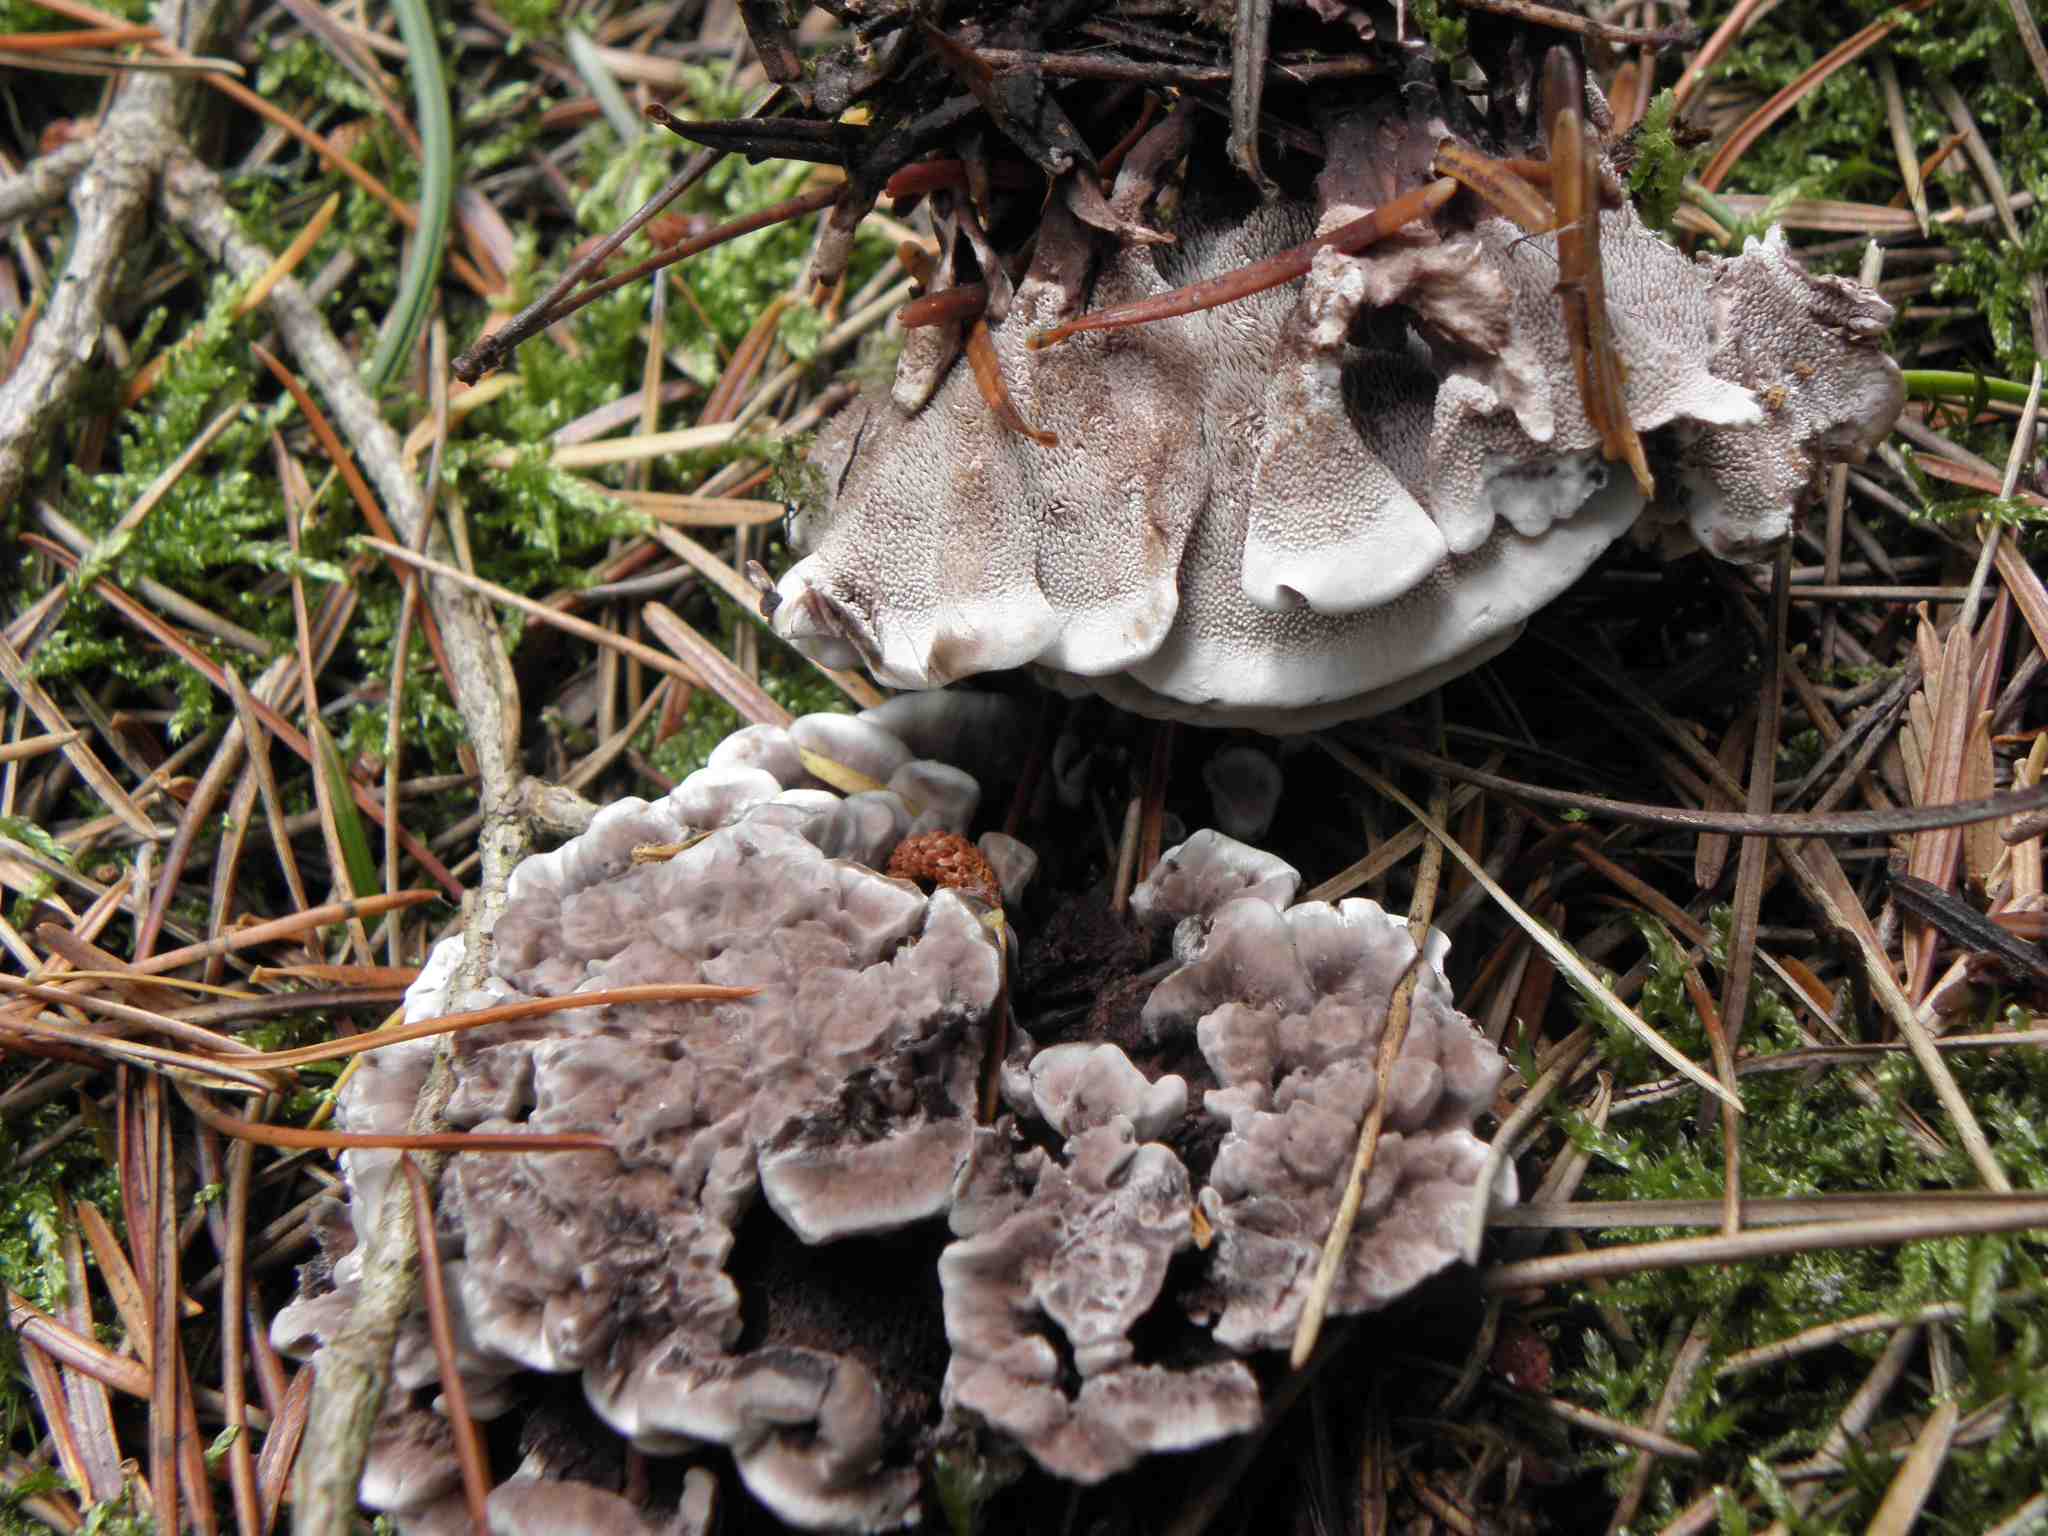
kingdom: Fungi
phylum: Basidiomycota
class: Agaricomycetes
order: Thelephorales
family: Thelephoraceae
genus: Phellodon
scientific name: Phellodon tomentosus
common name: vellugtende duftpigsvamp
